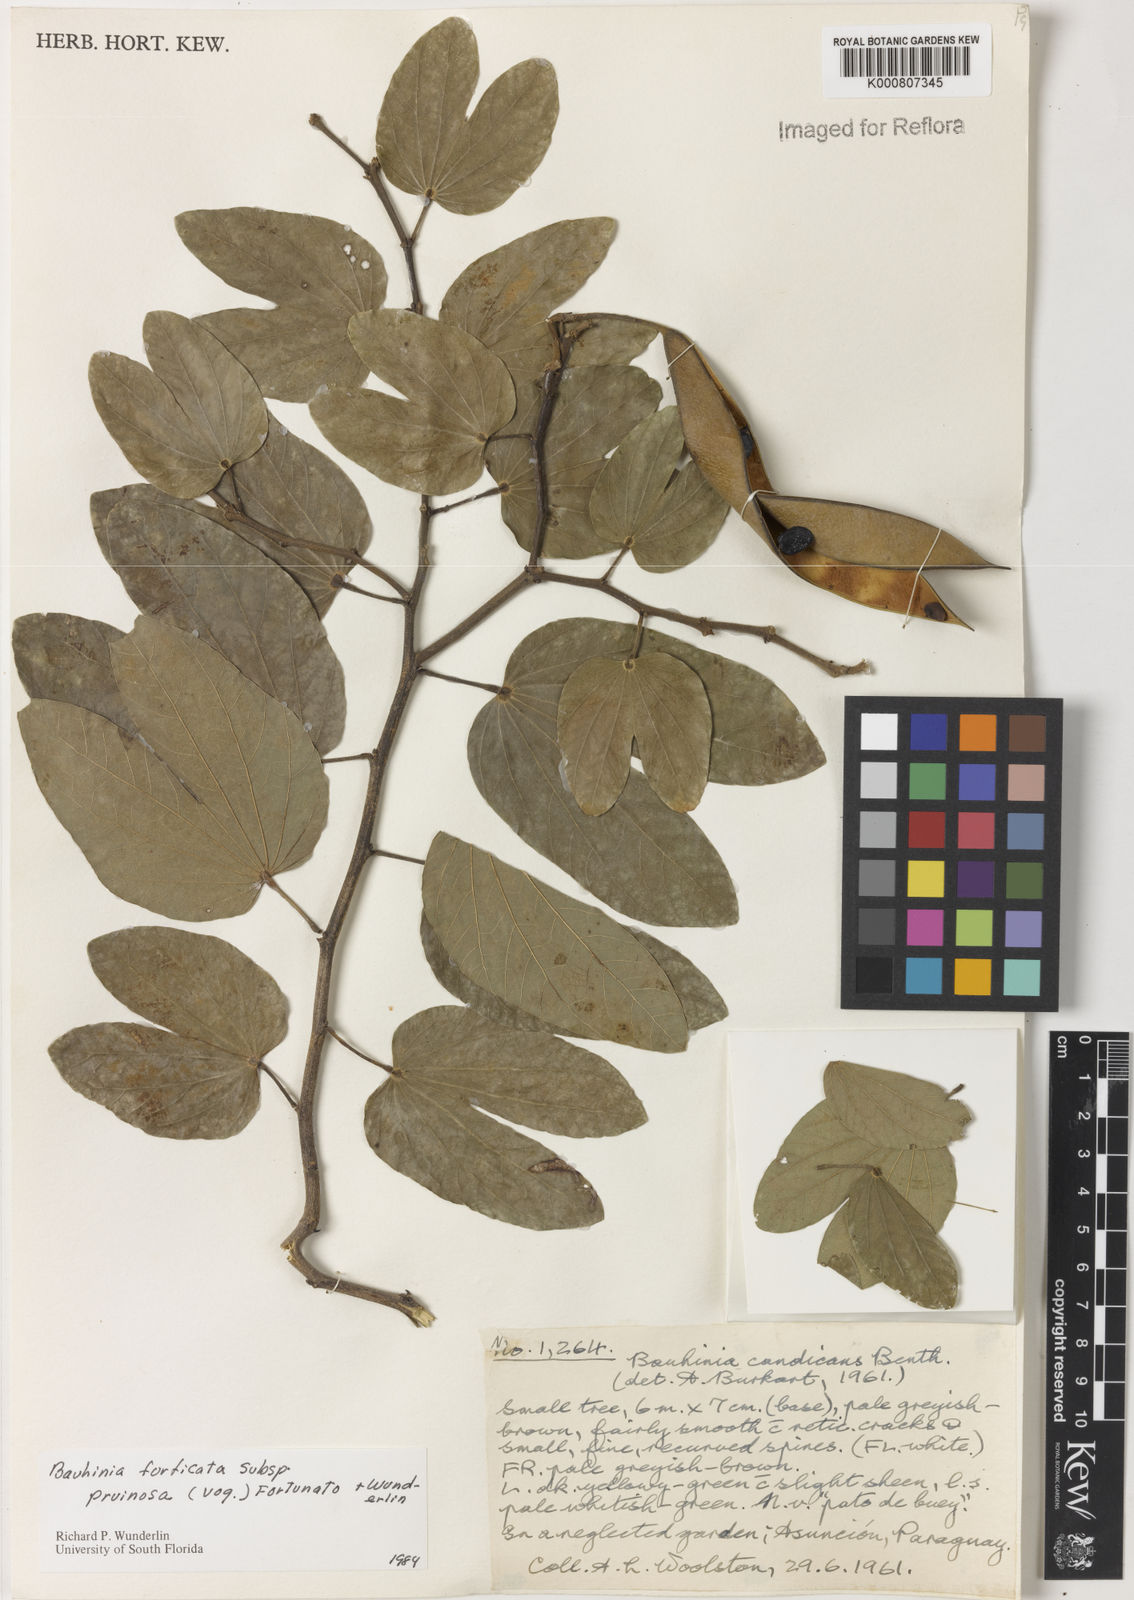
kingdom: Plantae
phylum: Tracheophyta
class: Magnoliopsida
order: Fabales
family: Fabaceae
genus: Bauhinia
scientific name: Bauhinia forficata
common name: Orchid tree
